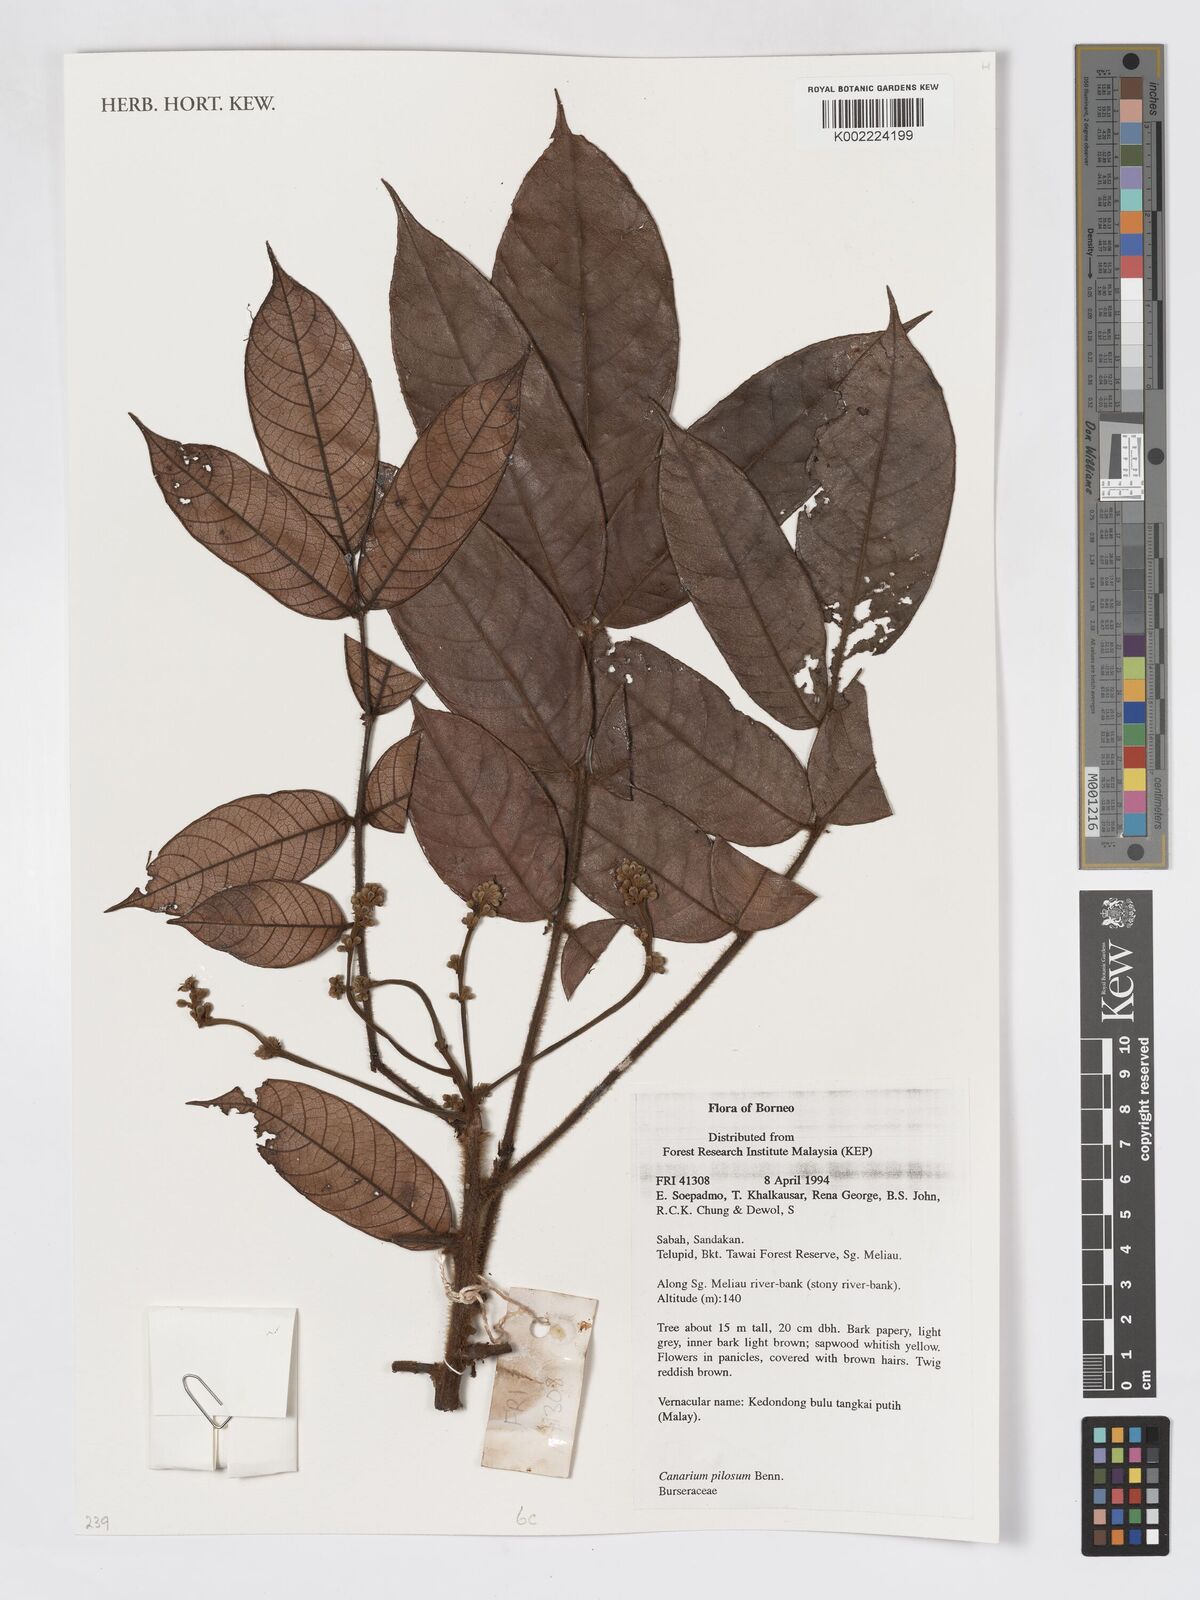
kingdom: Plantae
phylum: Tracheophyta
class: Magnoliopsida
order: Sapindales
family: Burseraceae
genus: Canarium
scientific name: Canarium pilosum
